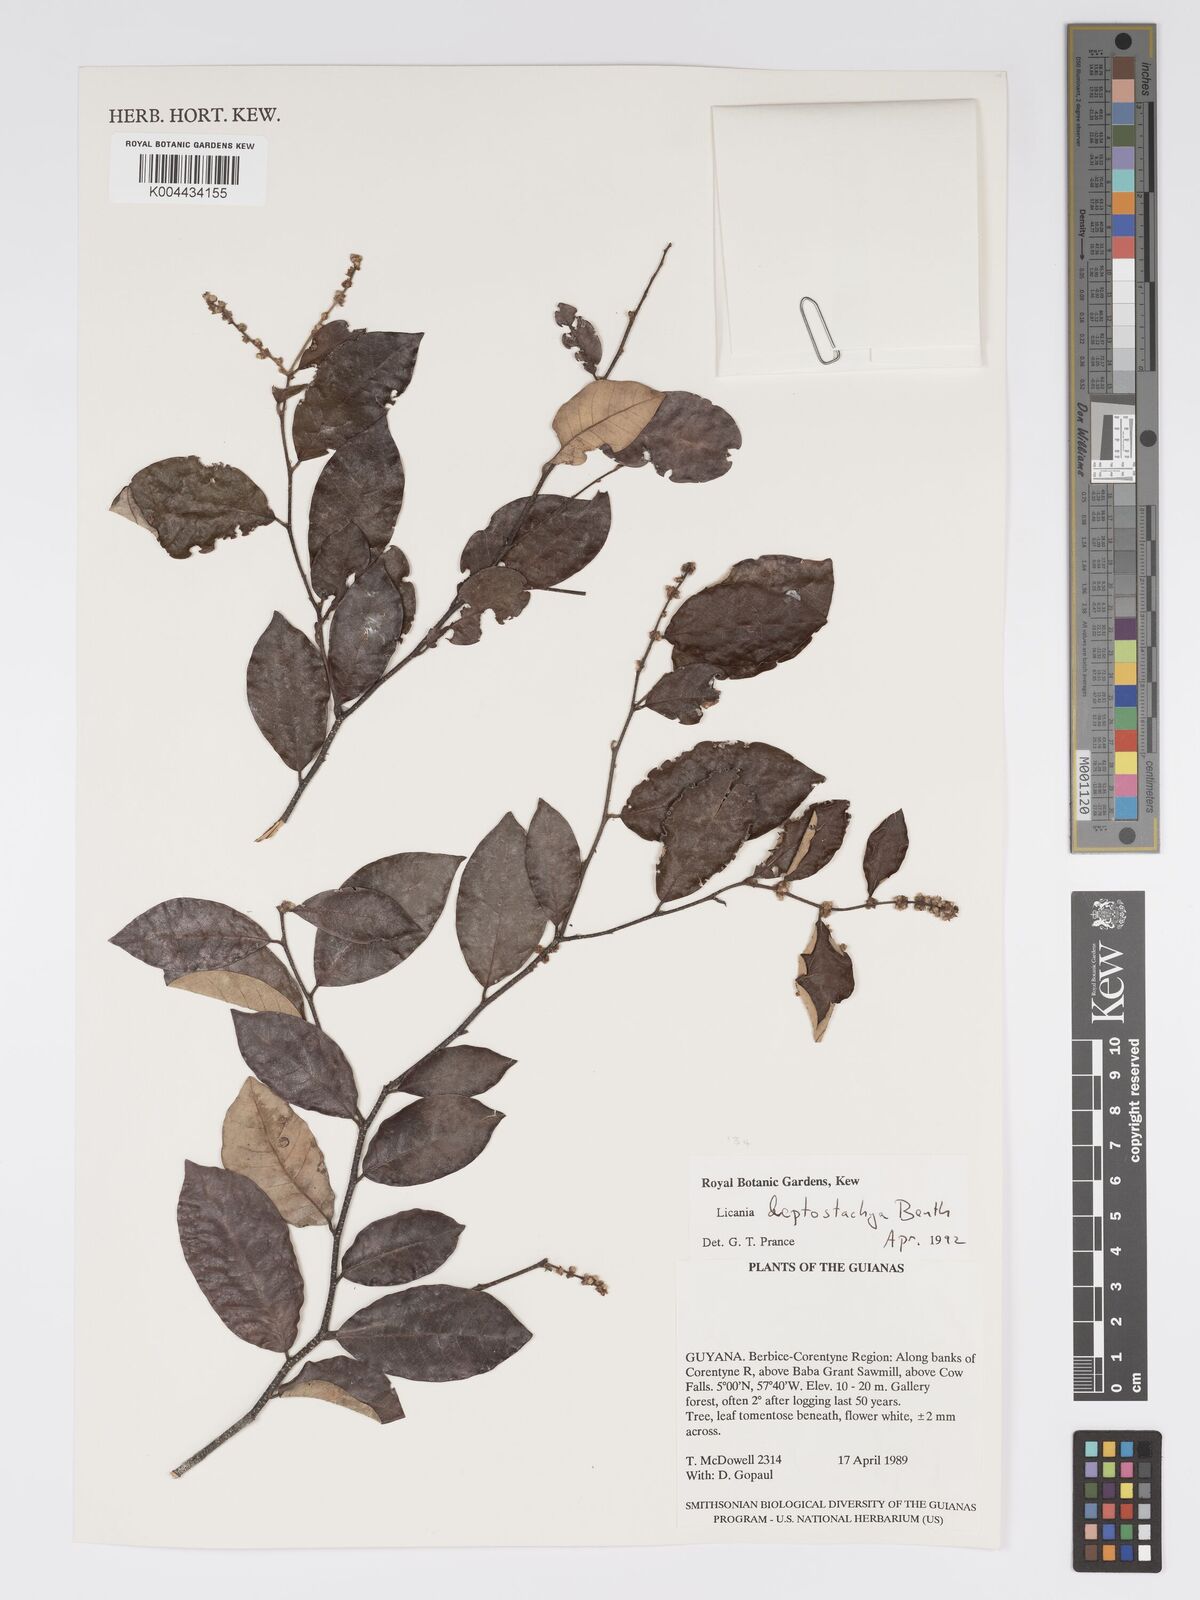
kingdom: Plantae
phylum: Tracheophyta
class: Magnoliopsida
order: Malpighiales
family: Chrysobalanaceae
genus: Licania
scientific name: Licania leptostachya
